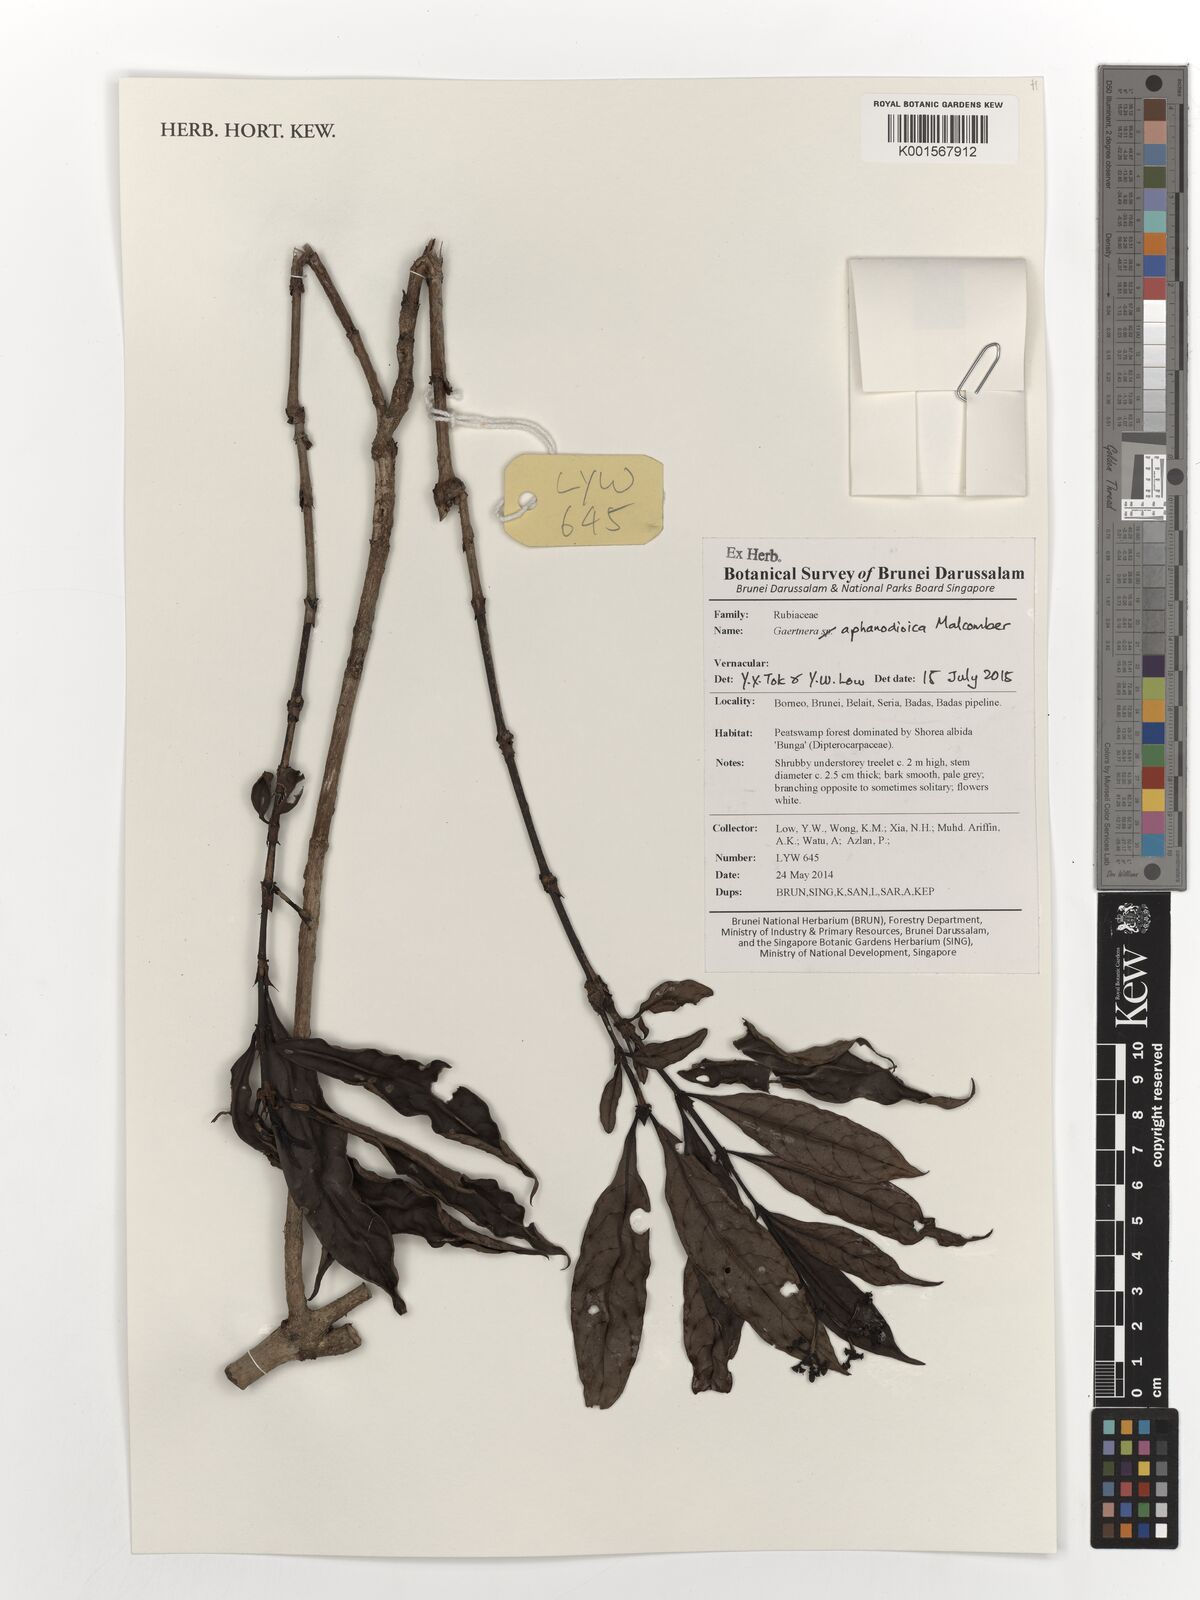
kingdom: Plantae
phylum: Tracheophyta
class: Magnoliopsida
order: Gentianales
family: Rubiaceae
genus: Gaertnera
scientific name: Gaertnera aphanodioica
